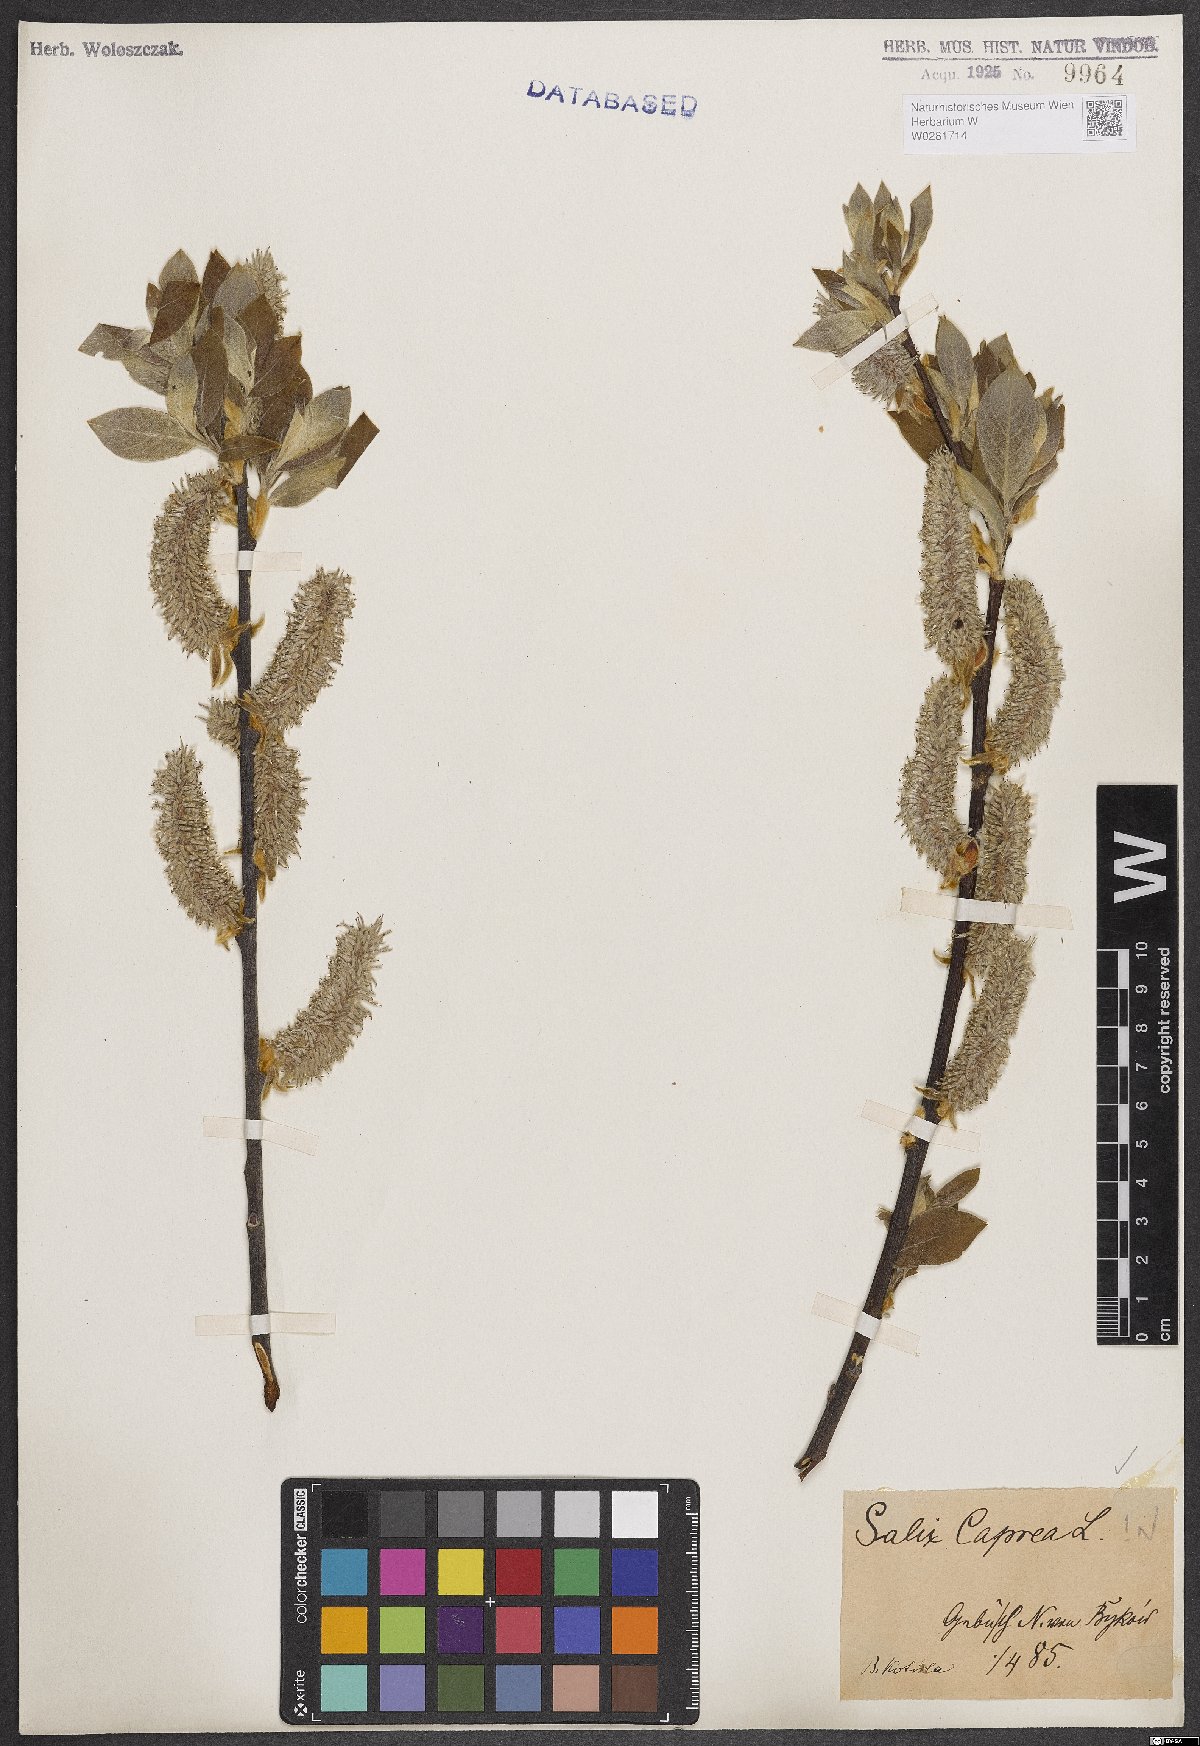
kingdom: Plantae
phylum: Tracheophyta
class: Magnoliopsida
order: Malpighiales
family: Salicaceae
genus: Salix
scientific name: Salix caprea
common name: Goat willow
